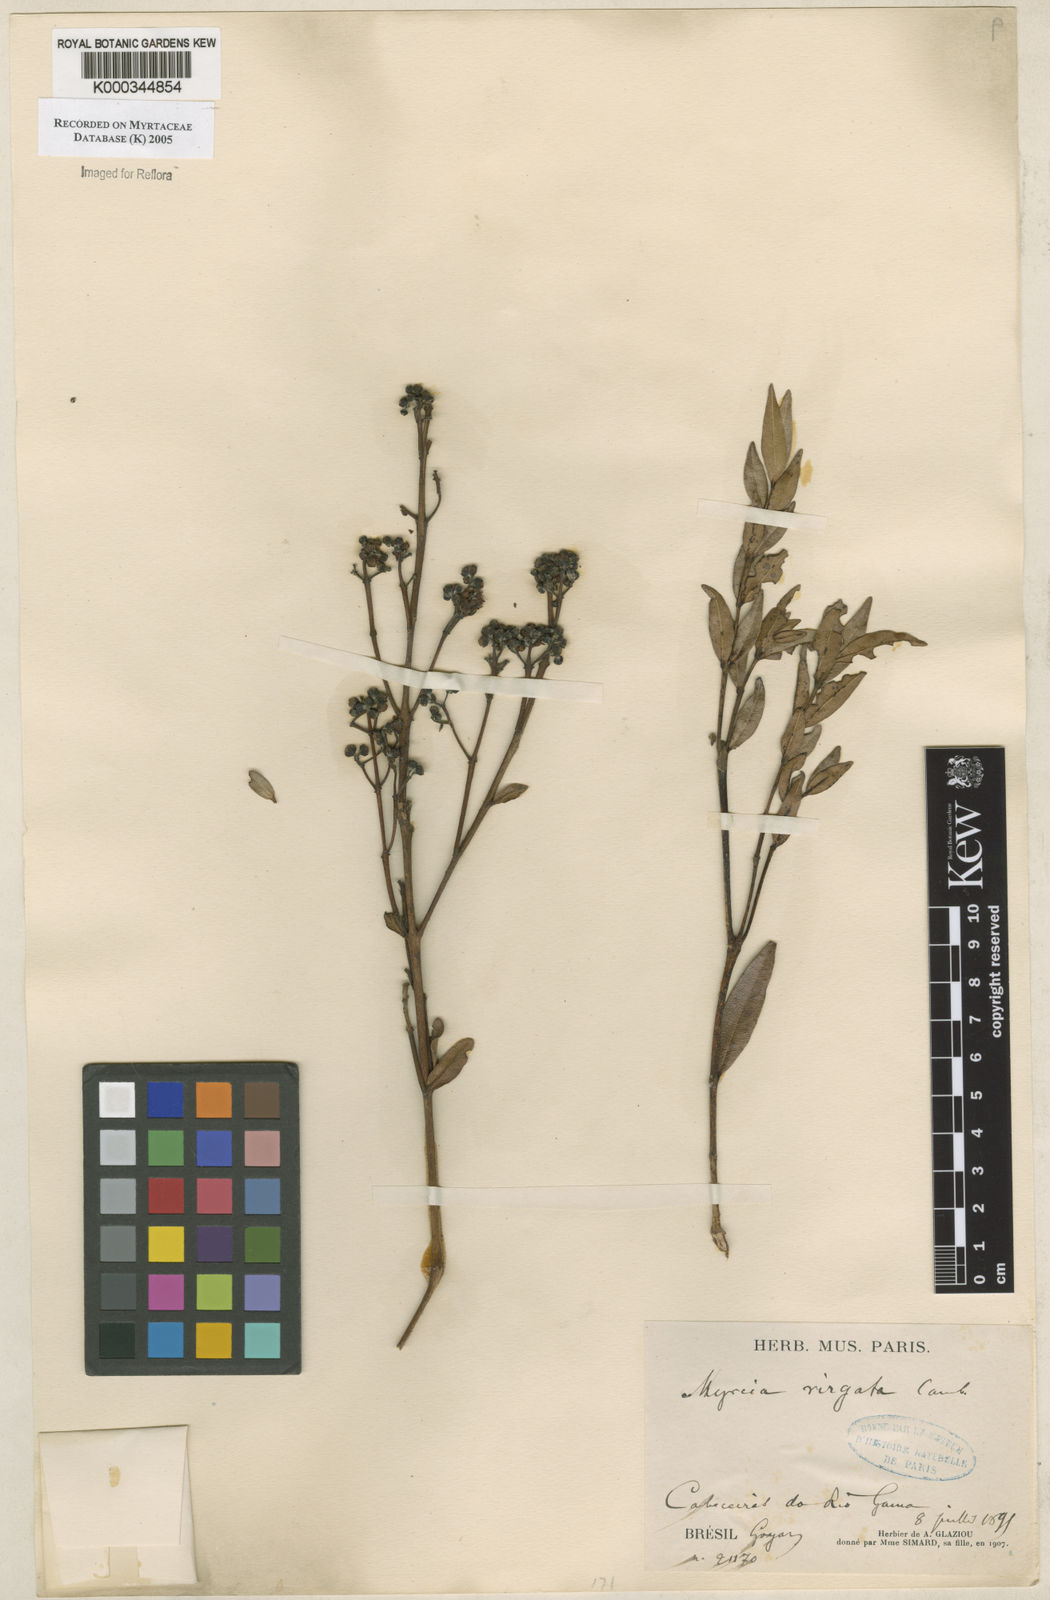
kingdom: Plantae
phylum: Tracheophyta
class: Magnoliopsida
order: Myrtales
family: Myrtaceae
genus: Myrcia
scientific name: Myrcia virgata
